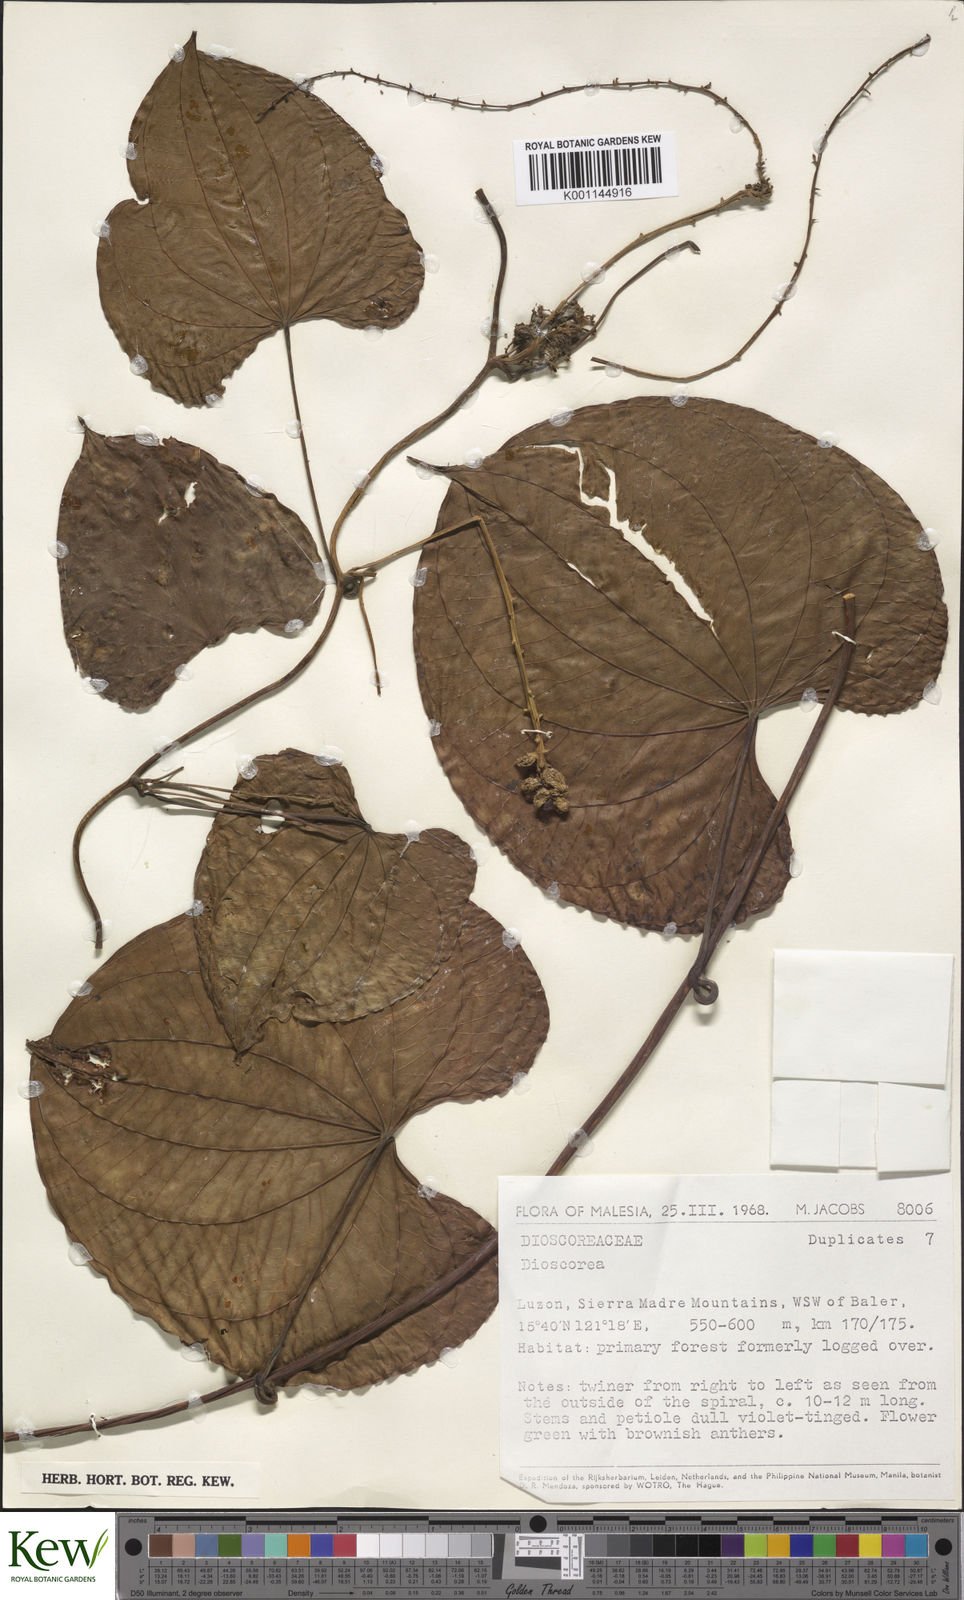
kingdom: Plantae
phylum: Tracheophyta
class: Liliopsida
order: Dioscoreales
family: Dioscoreaceae
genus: Dioscorea
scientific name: Dioscorea
